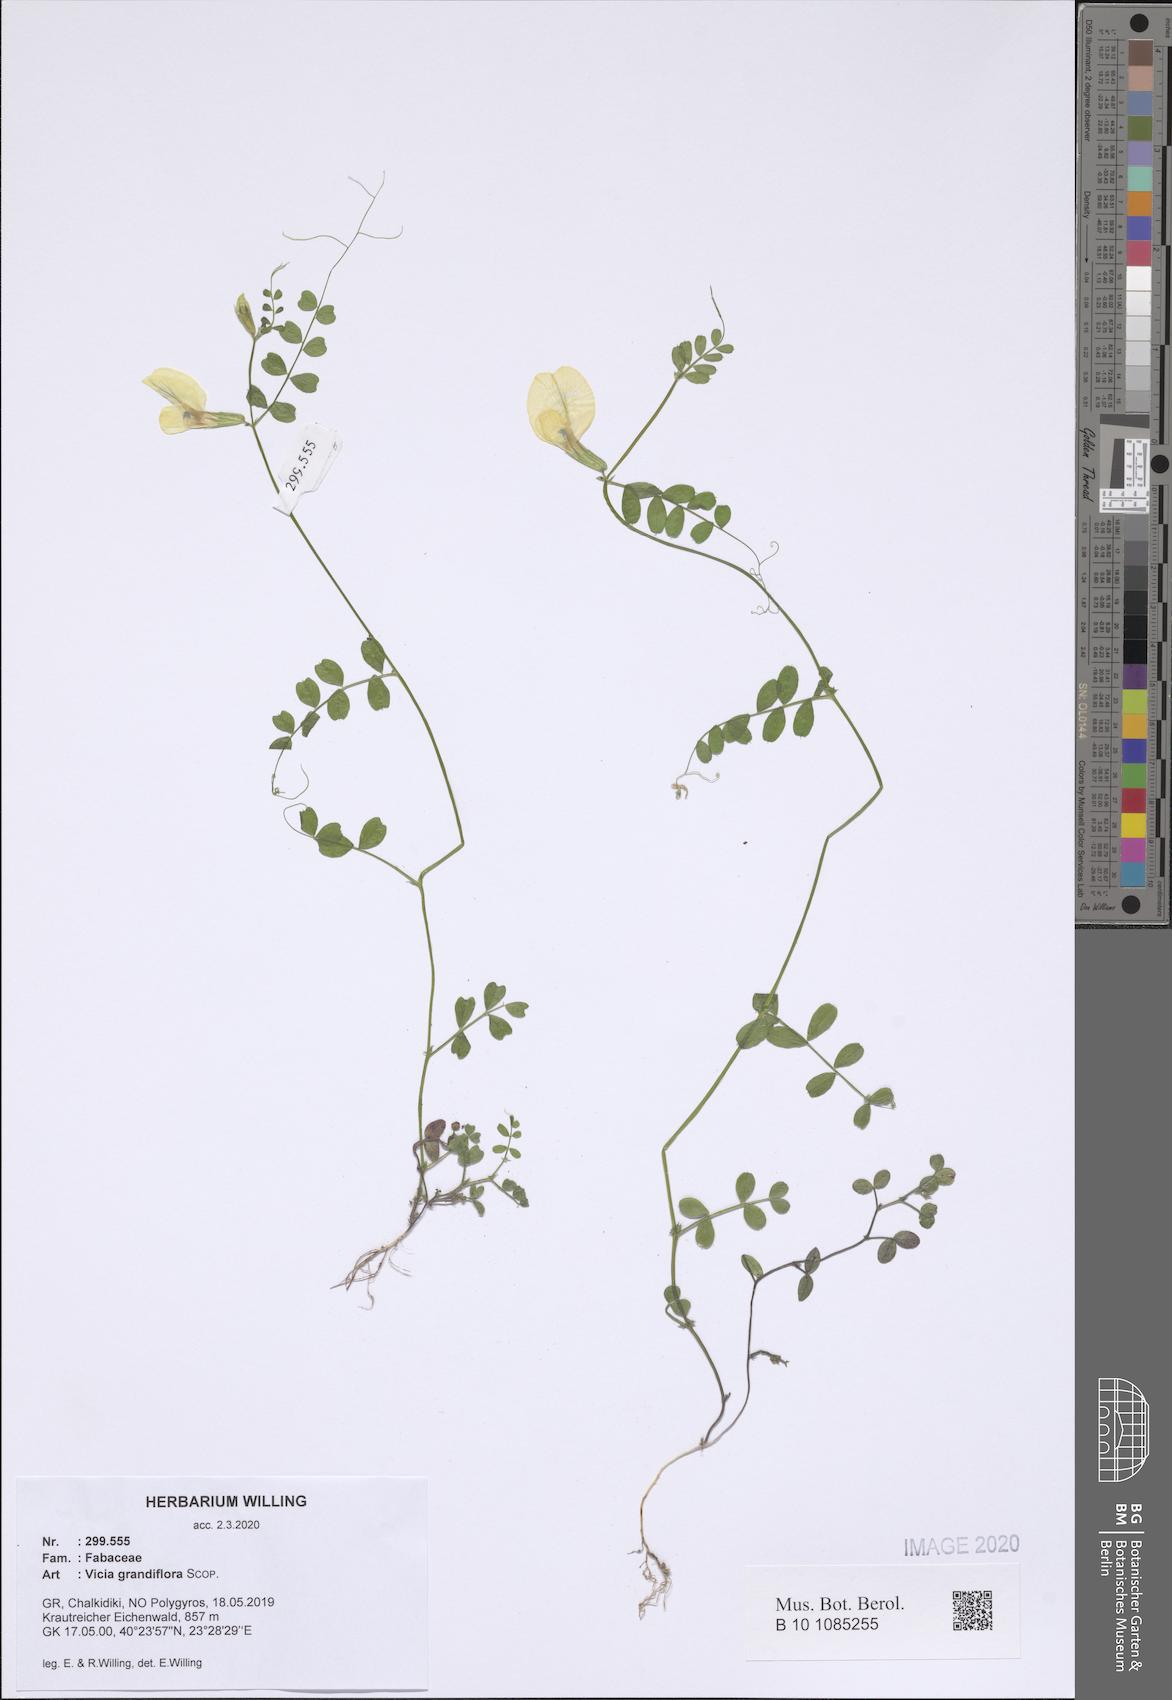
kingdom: Plantae
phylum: Tracheophyta
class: Magnoliopsida
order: Fabales
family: Fabaceae
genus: Vicia
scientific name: Vicia grandiflora
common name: Large yellow vetch
